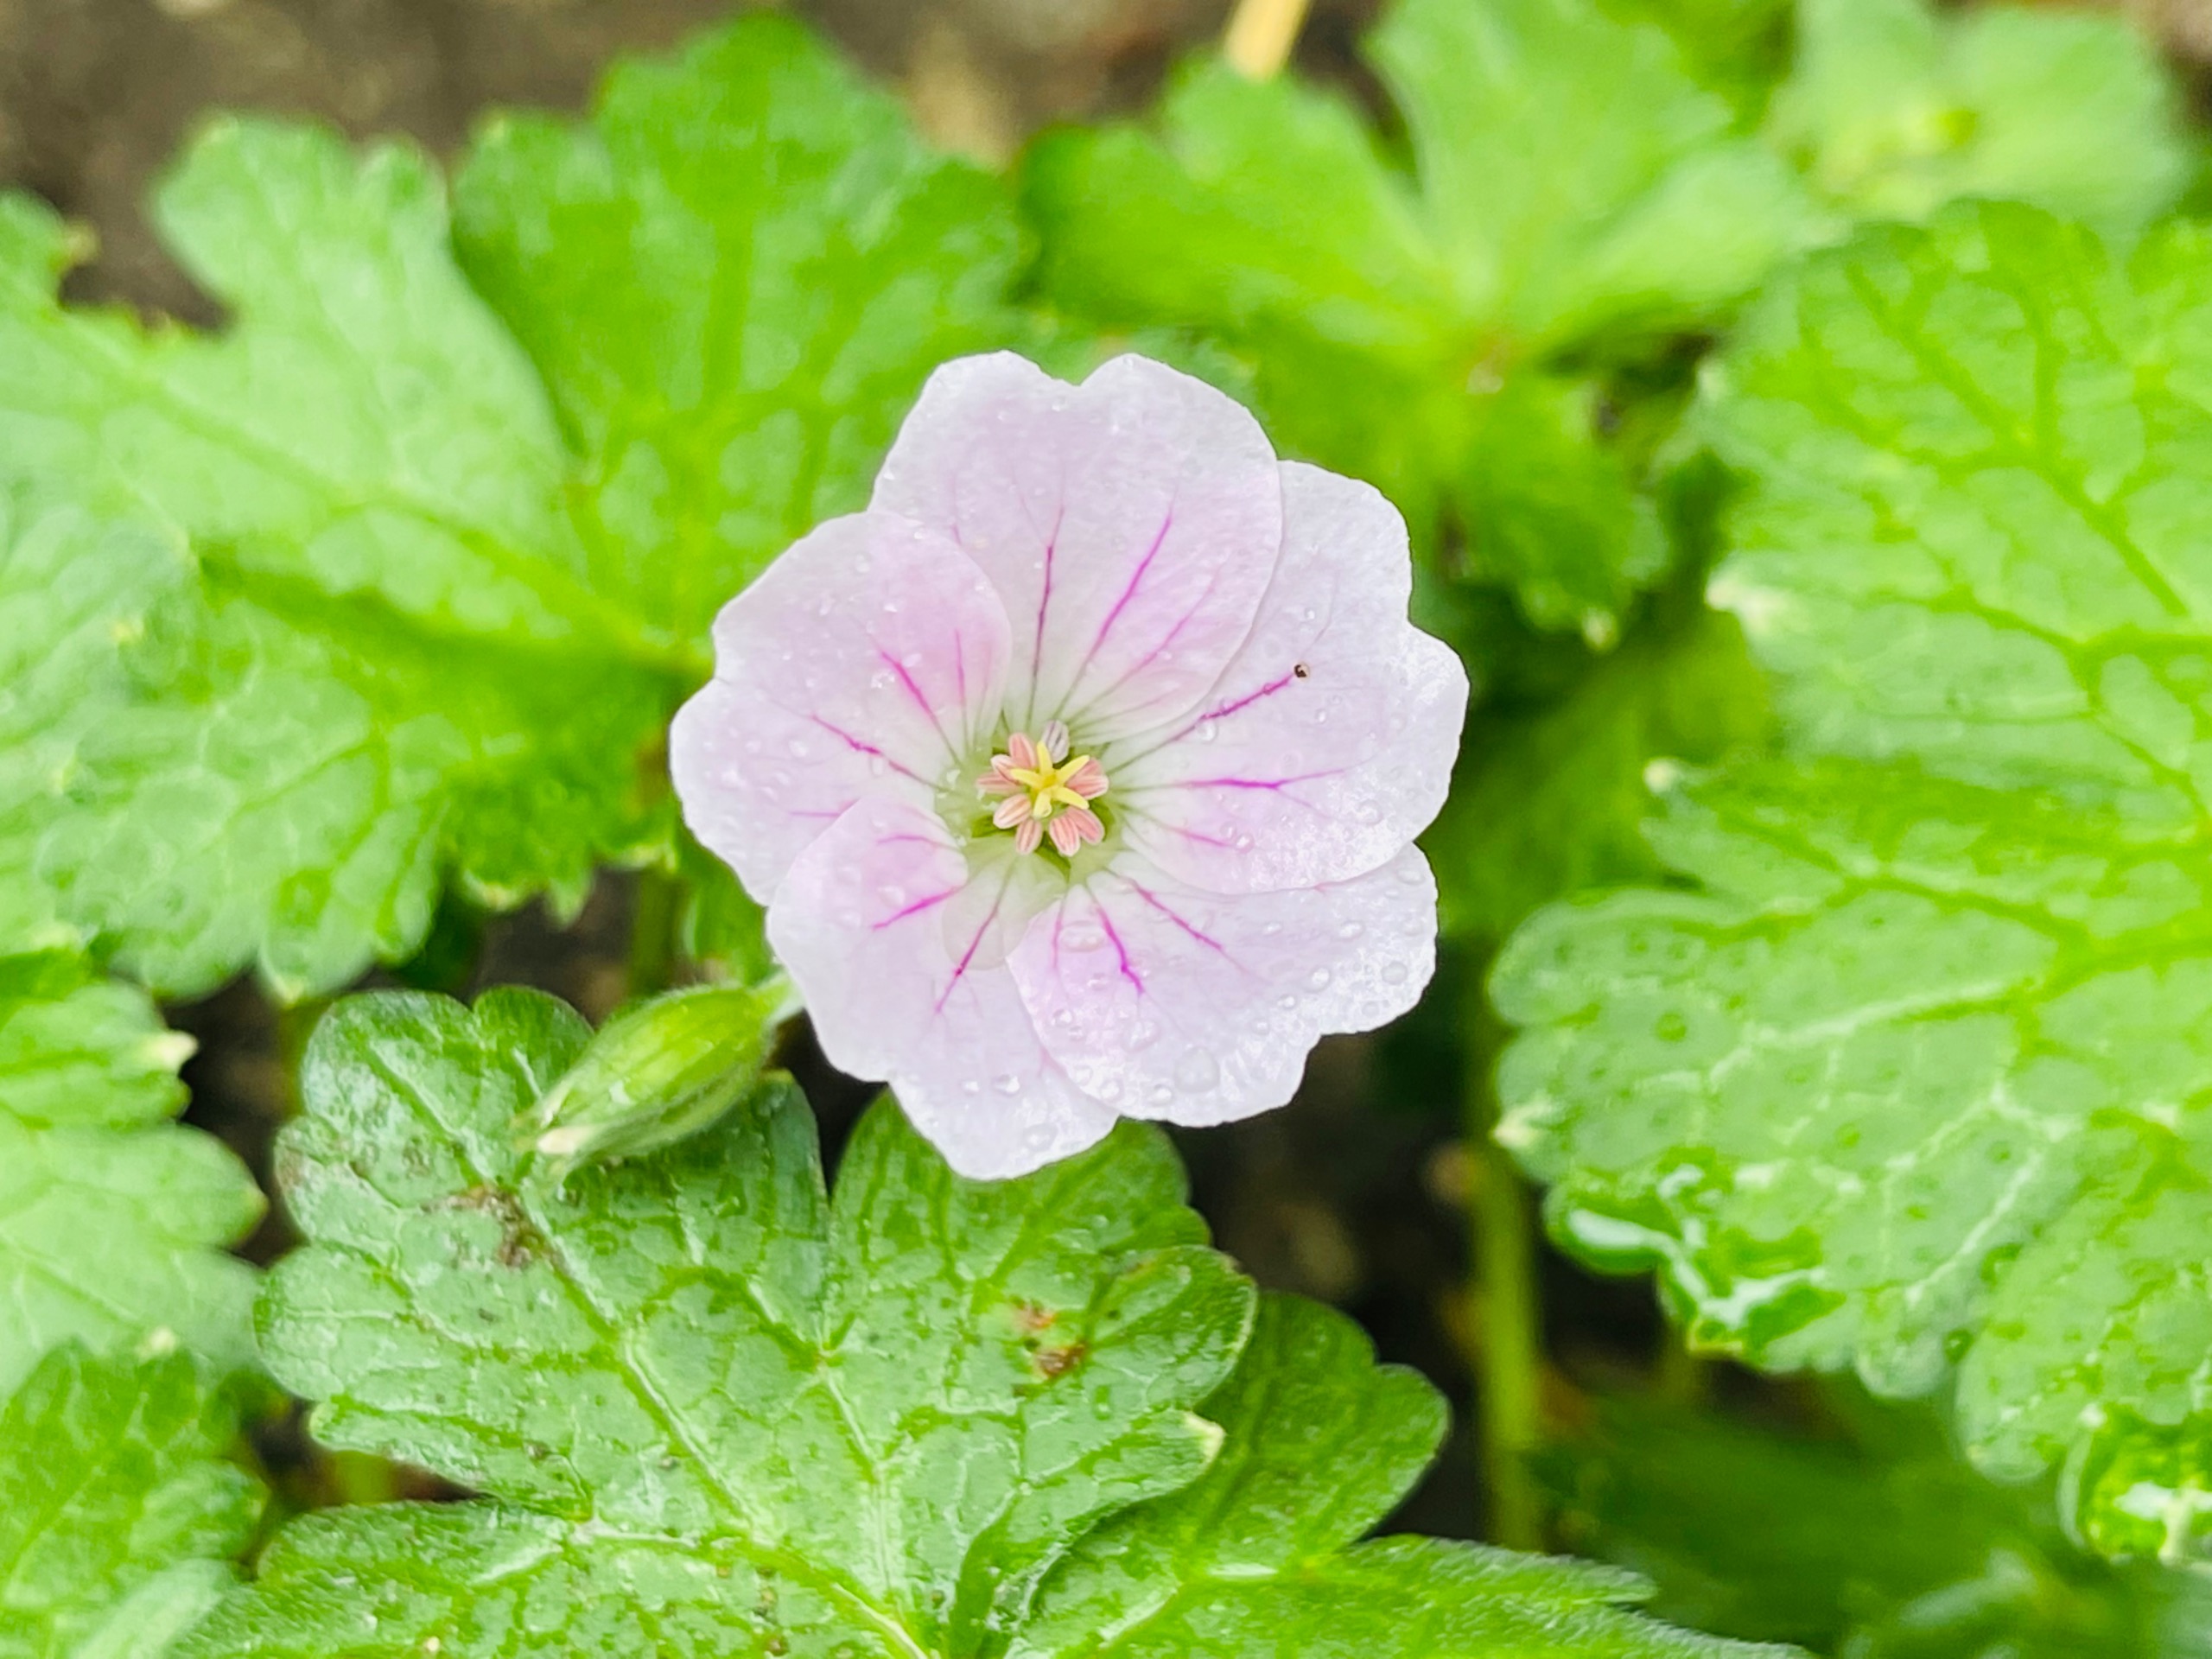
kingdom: Plantae
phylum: Tracheophyta
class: Magnoliopsida
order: Geraniales
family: Geraniaceae
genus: Geranium
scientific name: Geranium versicolor
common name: Året storkenæb
